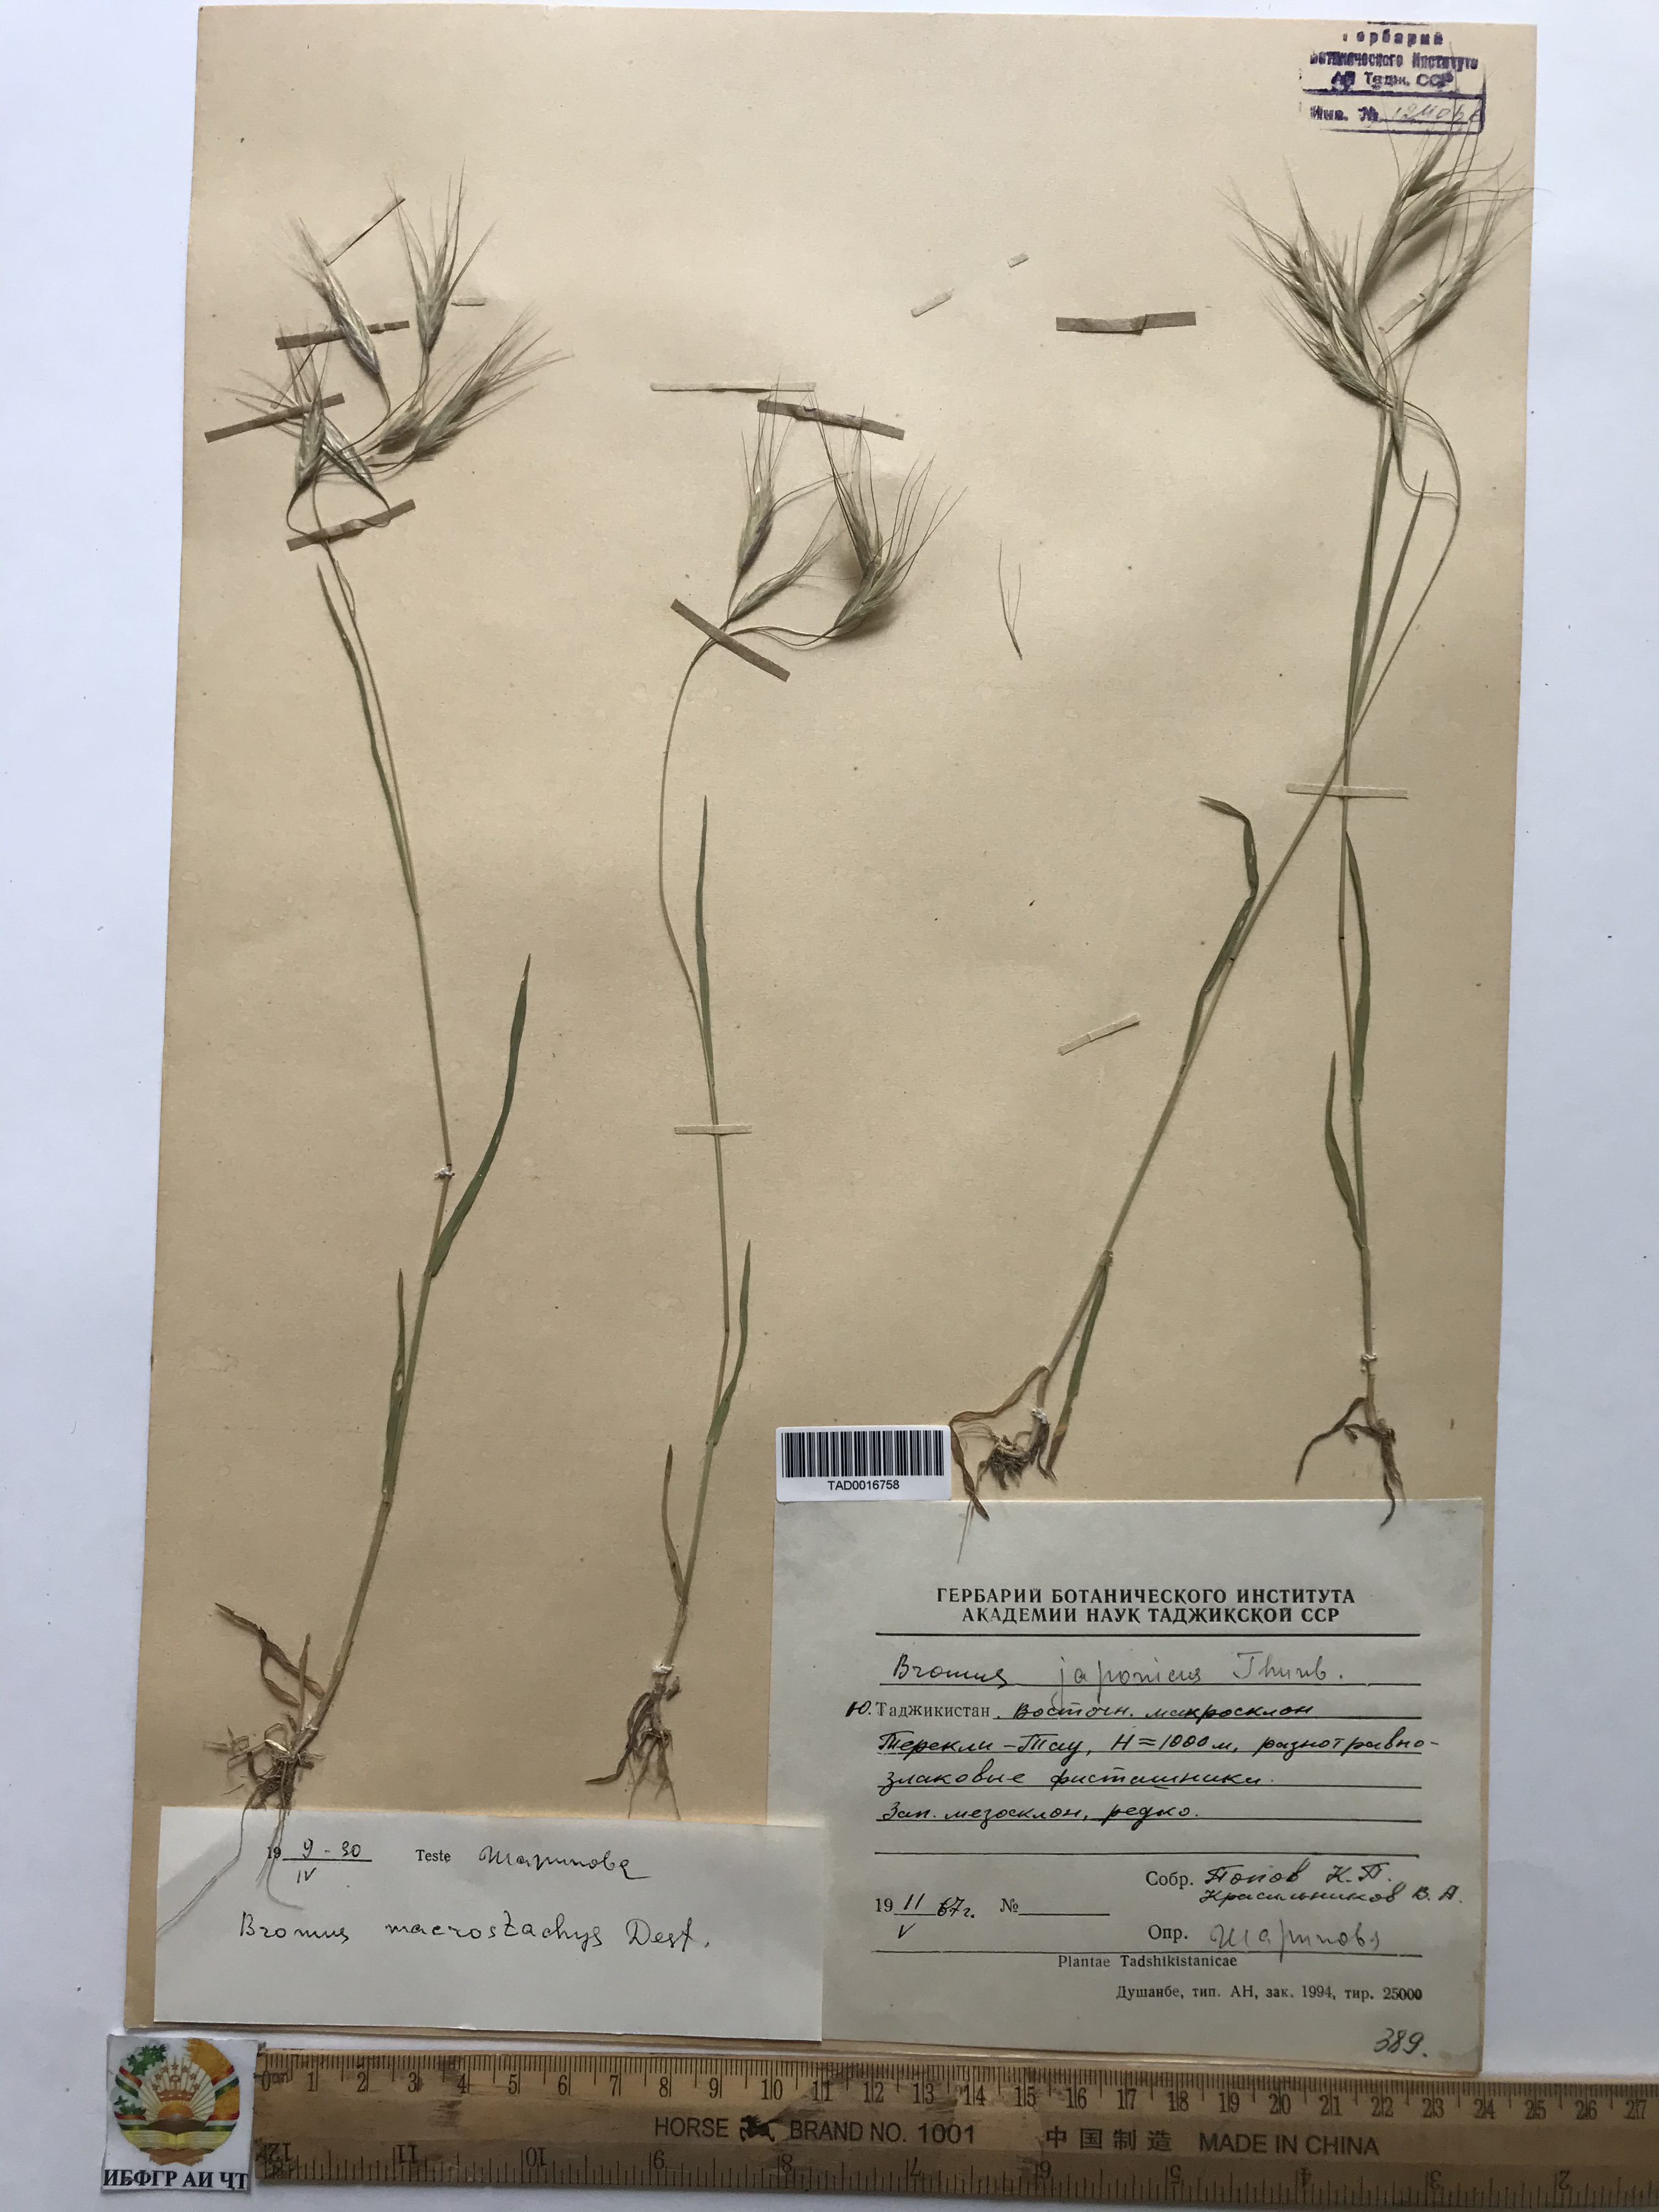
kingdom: Plantae
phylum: Tracheophyta
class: Liliopsida
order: Poales
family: Poaceae
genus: Bromus
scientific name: Bromus lanceolatus
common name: Mediterranean brome
